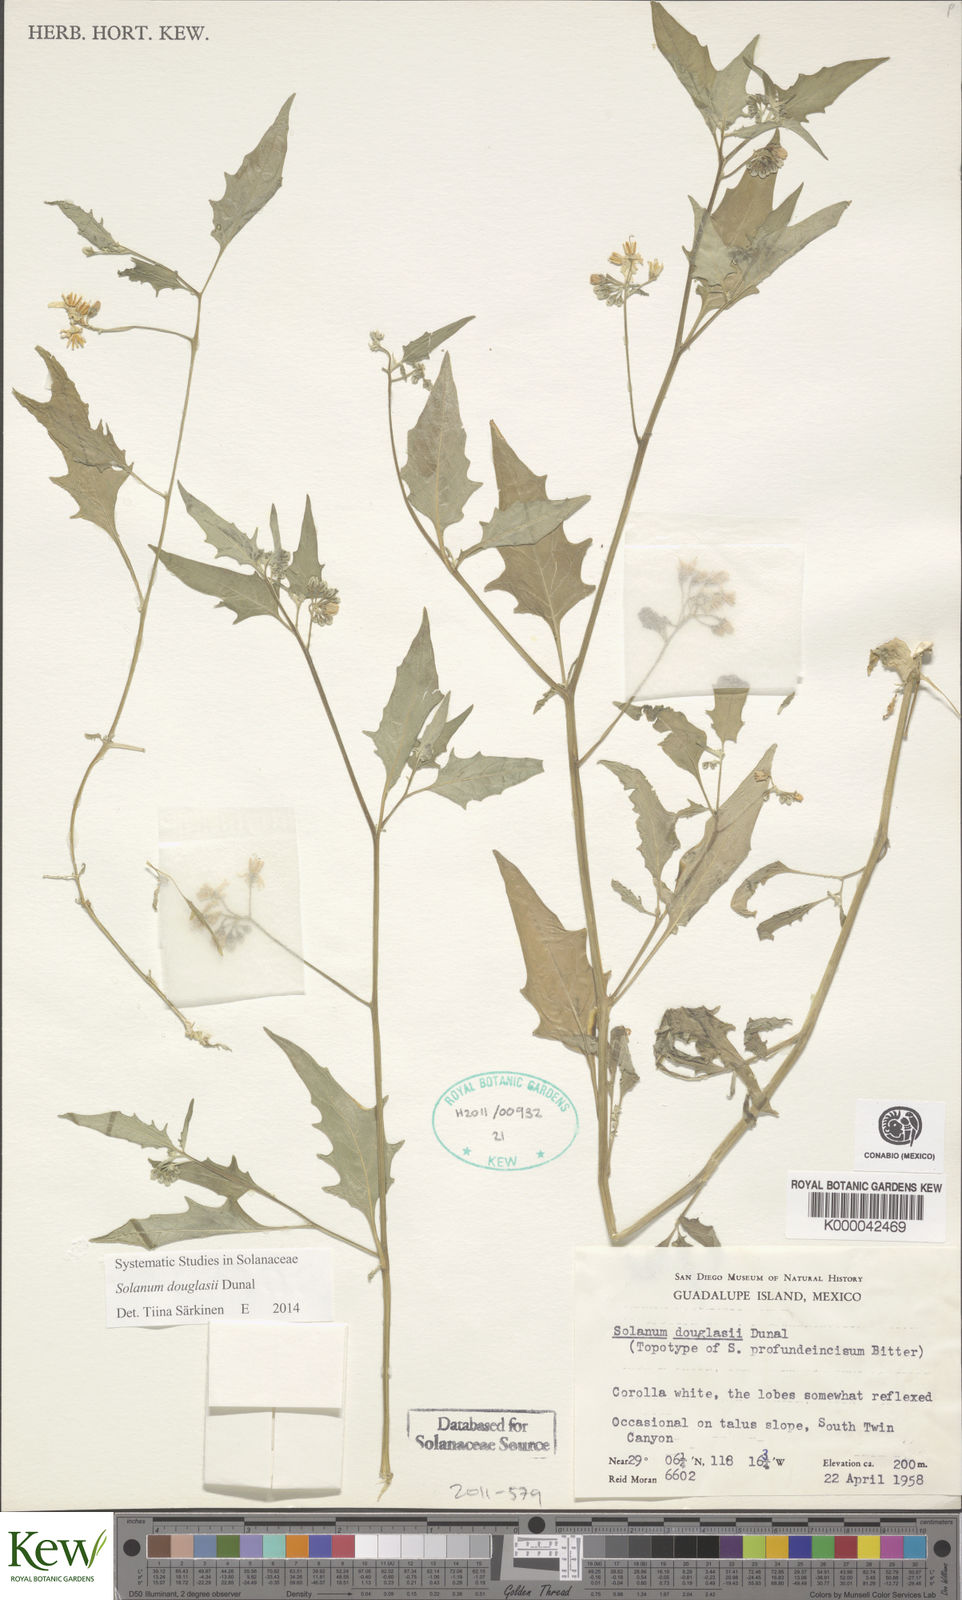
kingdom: Plantae
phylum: Tracheophyta
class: Magnoliopsida
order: Solanales
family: Solanaceae
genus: Solanum
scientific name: Solanum douglasii
